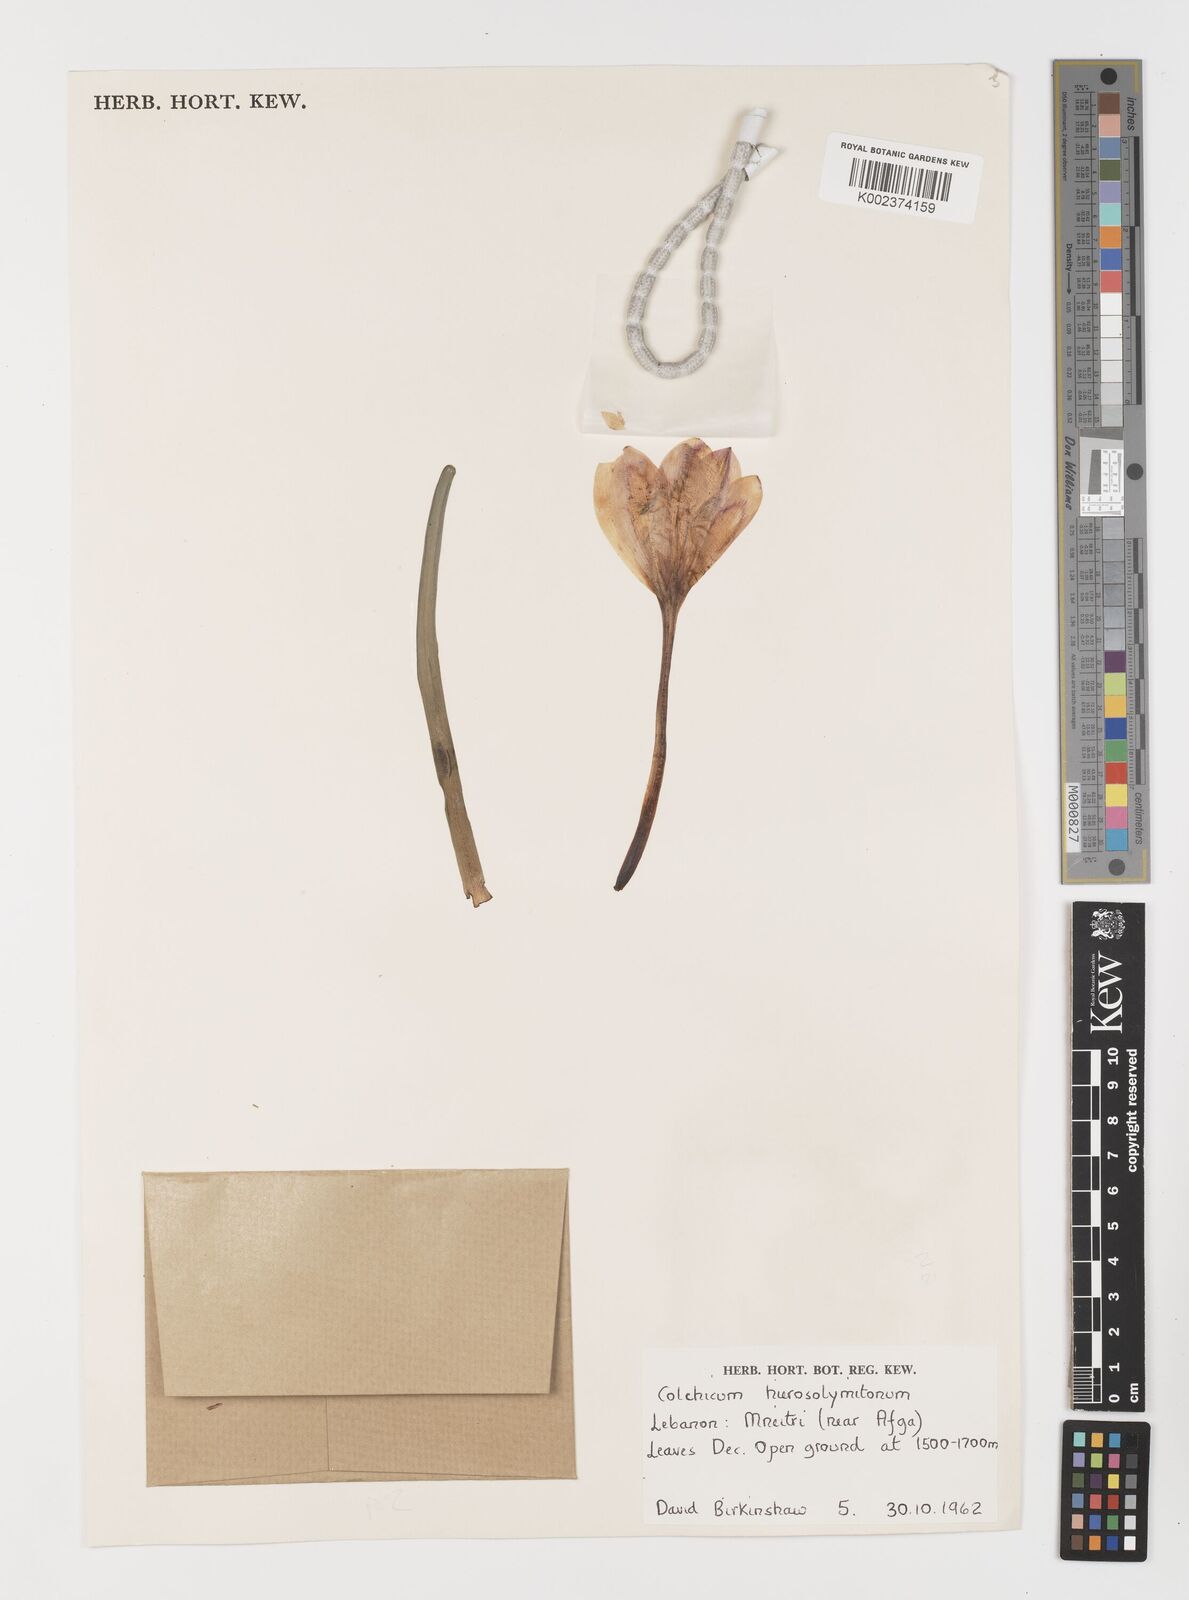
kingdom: Plantae
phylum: Tracheophyta
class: Liliopsida
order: Liliales
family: Colchicaceae
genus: Colchicum
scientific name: Colchicum hierosolymitanum
